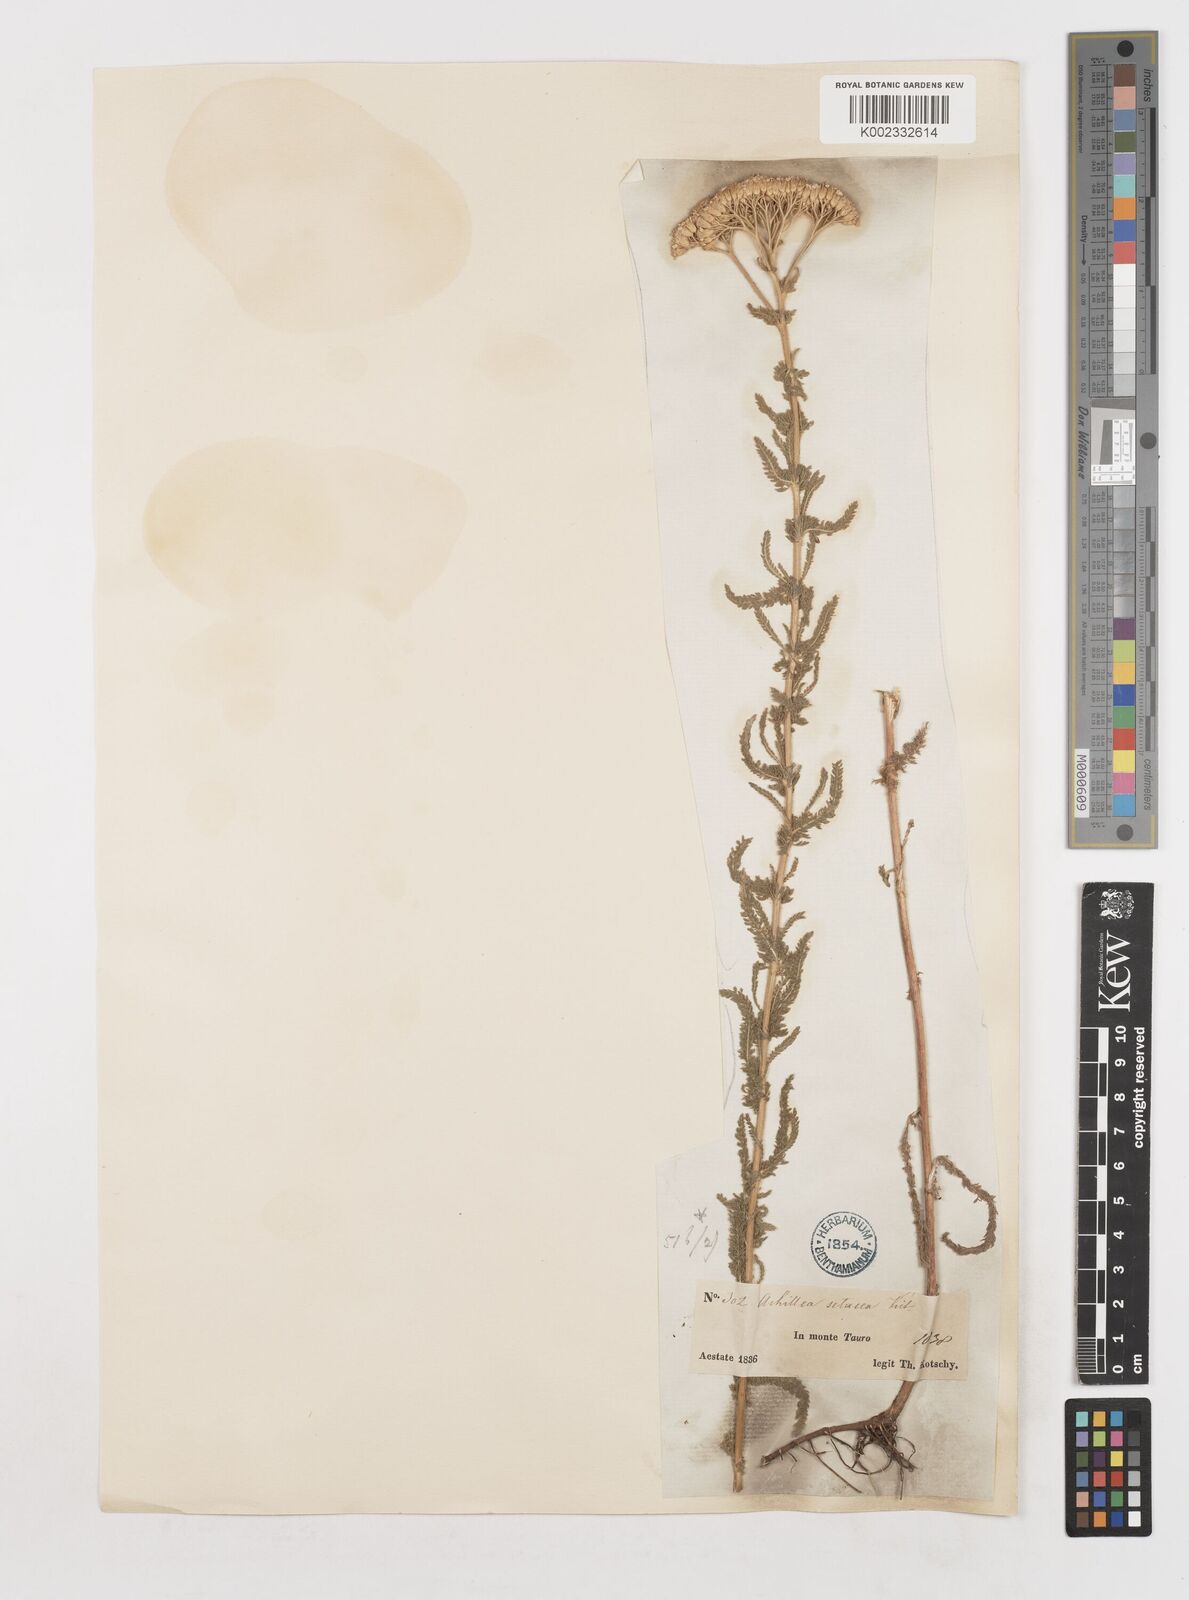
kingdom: Plantae
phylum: Tracheophyta
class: Magnoliopsida
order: Asterales
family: Asteraceae
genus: Achillea
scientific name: Achillea setacea
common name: Bristly yarrow
